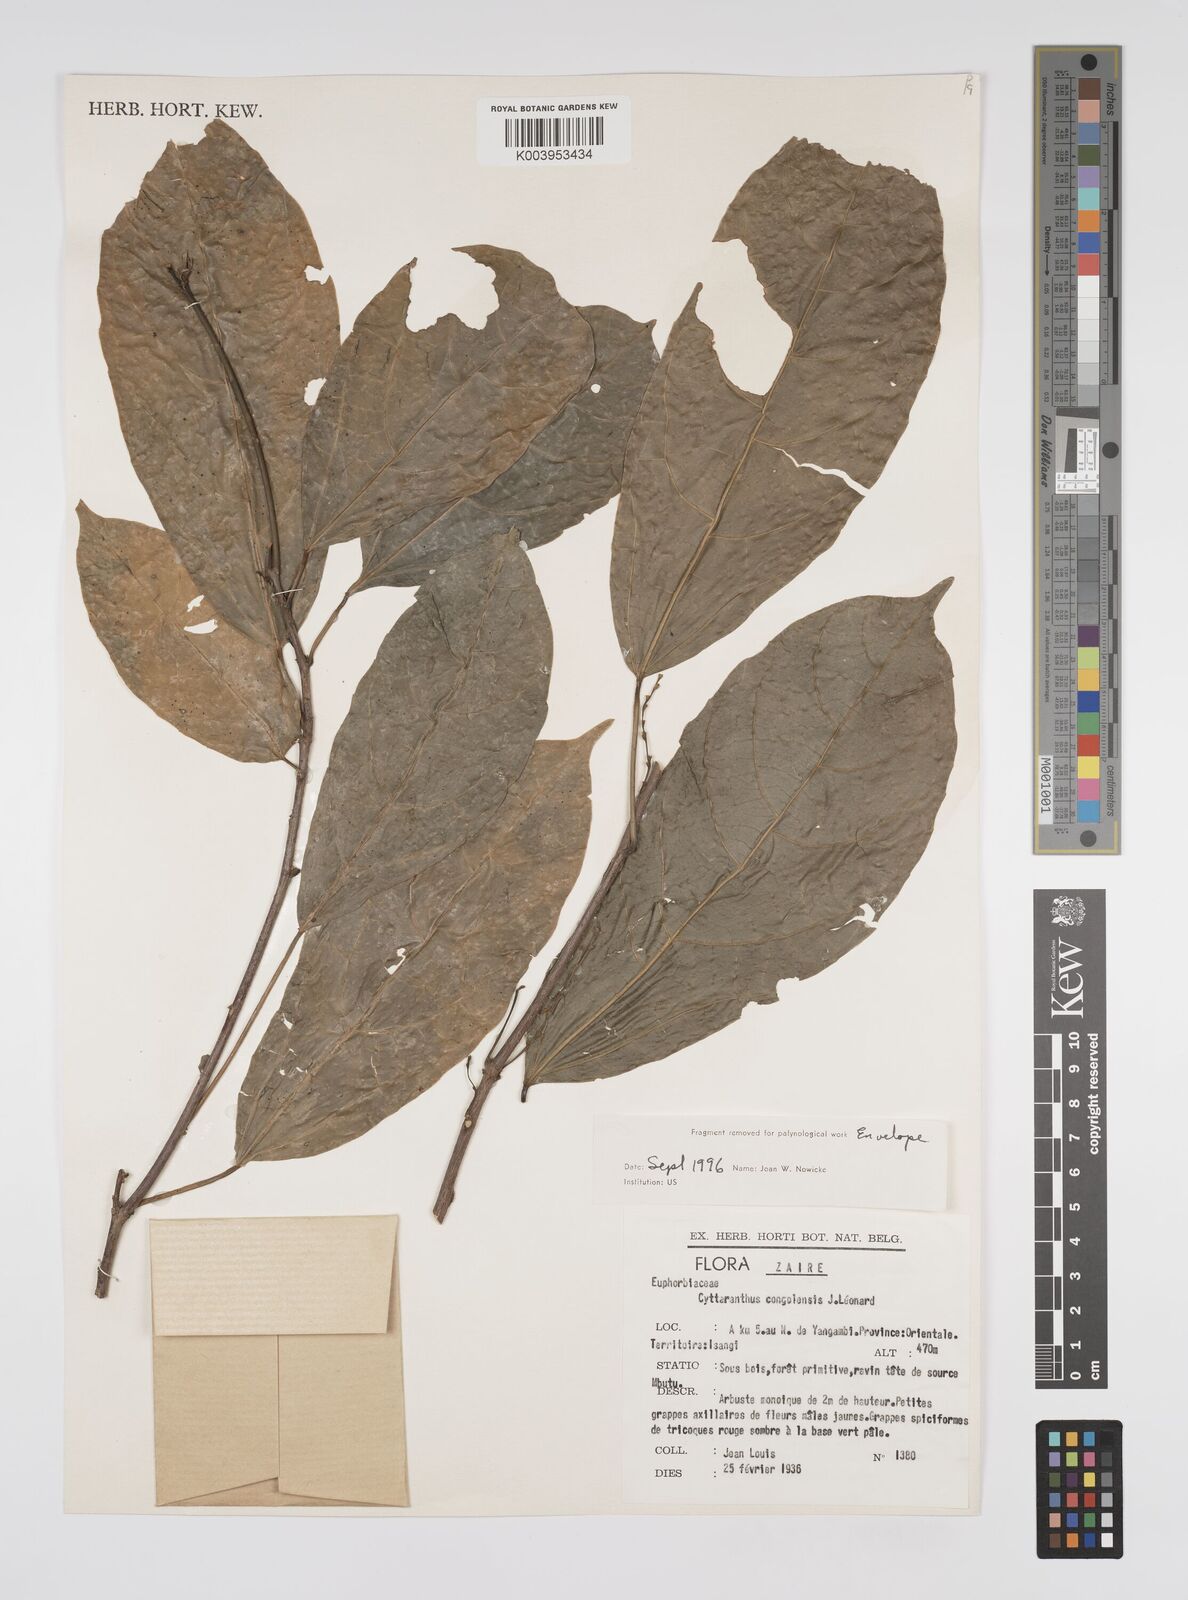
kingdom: Plantae
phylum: Tracheophyta
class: Magnoliopsida
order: Malpighiales
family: Euphorbiaceae
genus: Cyttaranthus
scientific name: Cyttaranthus congolensis
